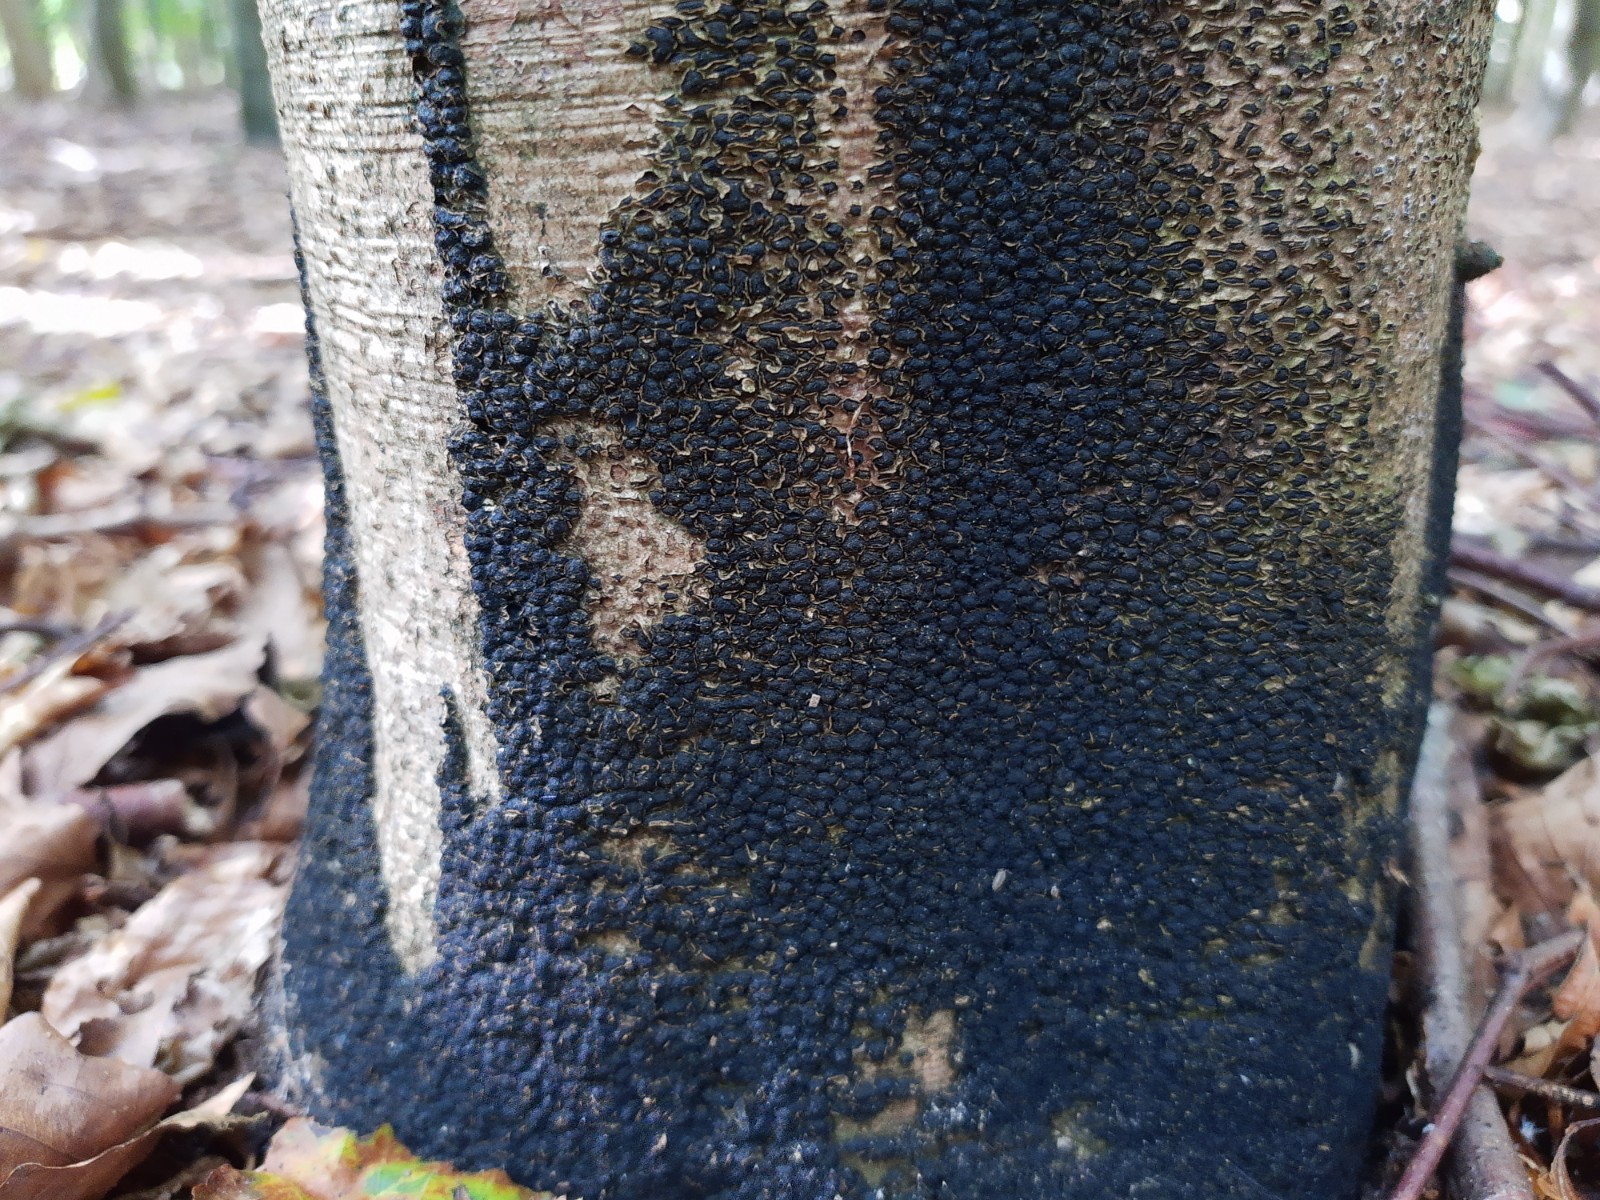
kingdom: Fungi
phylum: Ascomycota
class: Sordariomycetes
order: Xylariales
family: Melogrammataceae
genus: Melogramma
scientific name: Melogramma spiniferum
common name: bøgefod-kulhals
